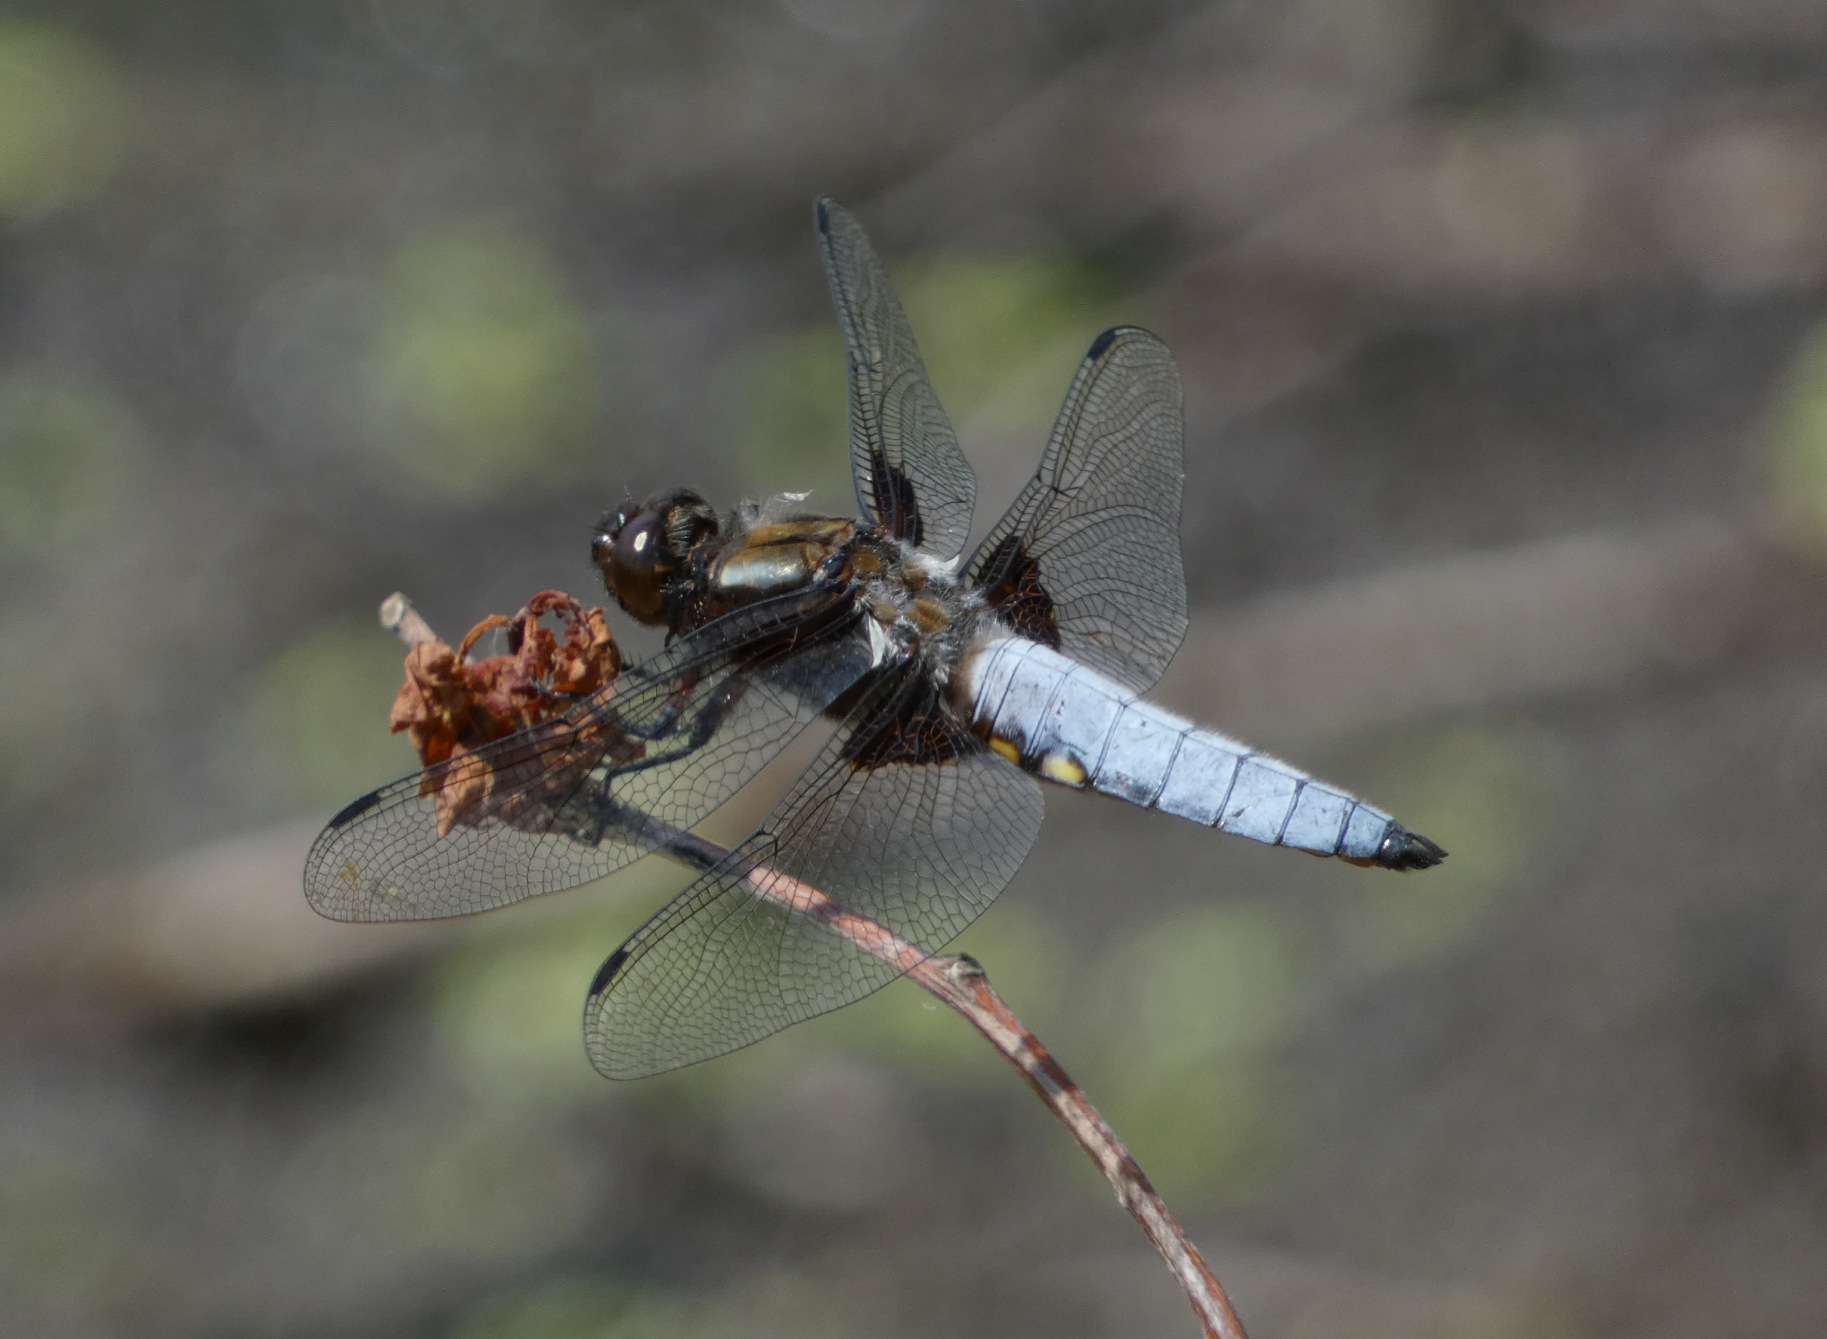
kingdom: Animalia
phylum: Arthropoda
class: Insecta
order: Odonata
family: Libellulidae
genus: Libellula
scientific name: Libellula depressa
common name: Blå libel
